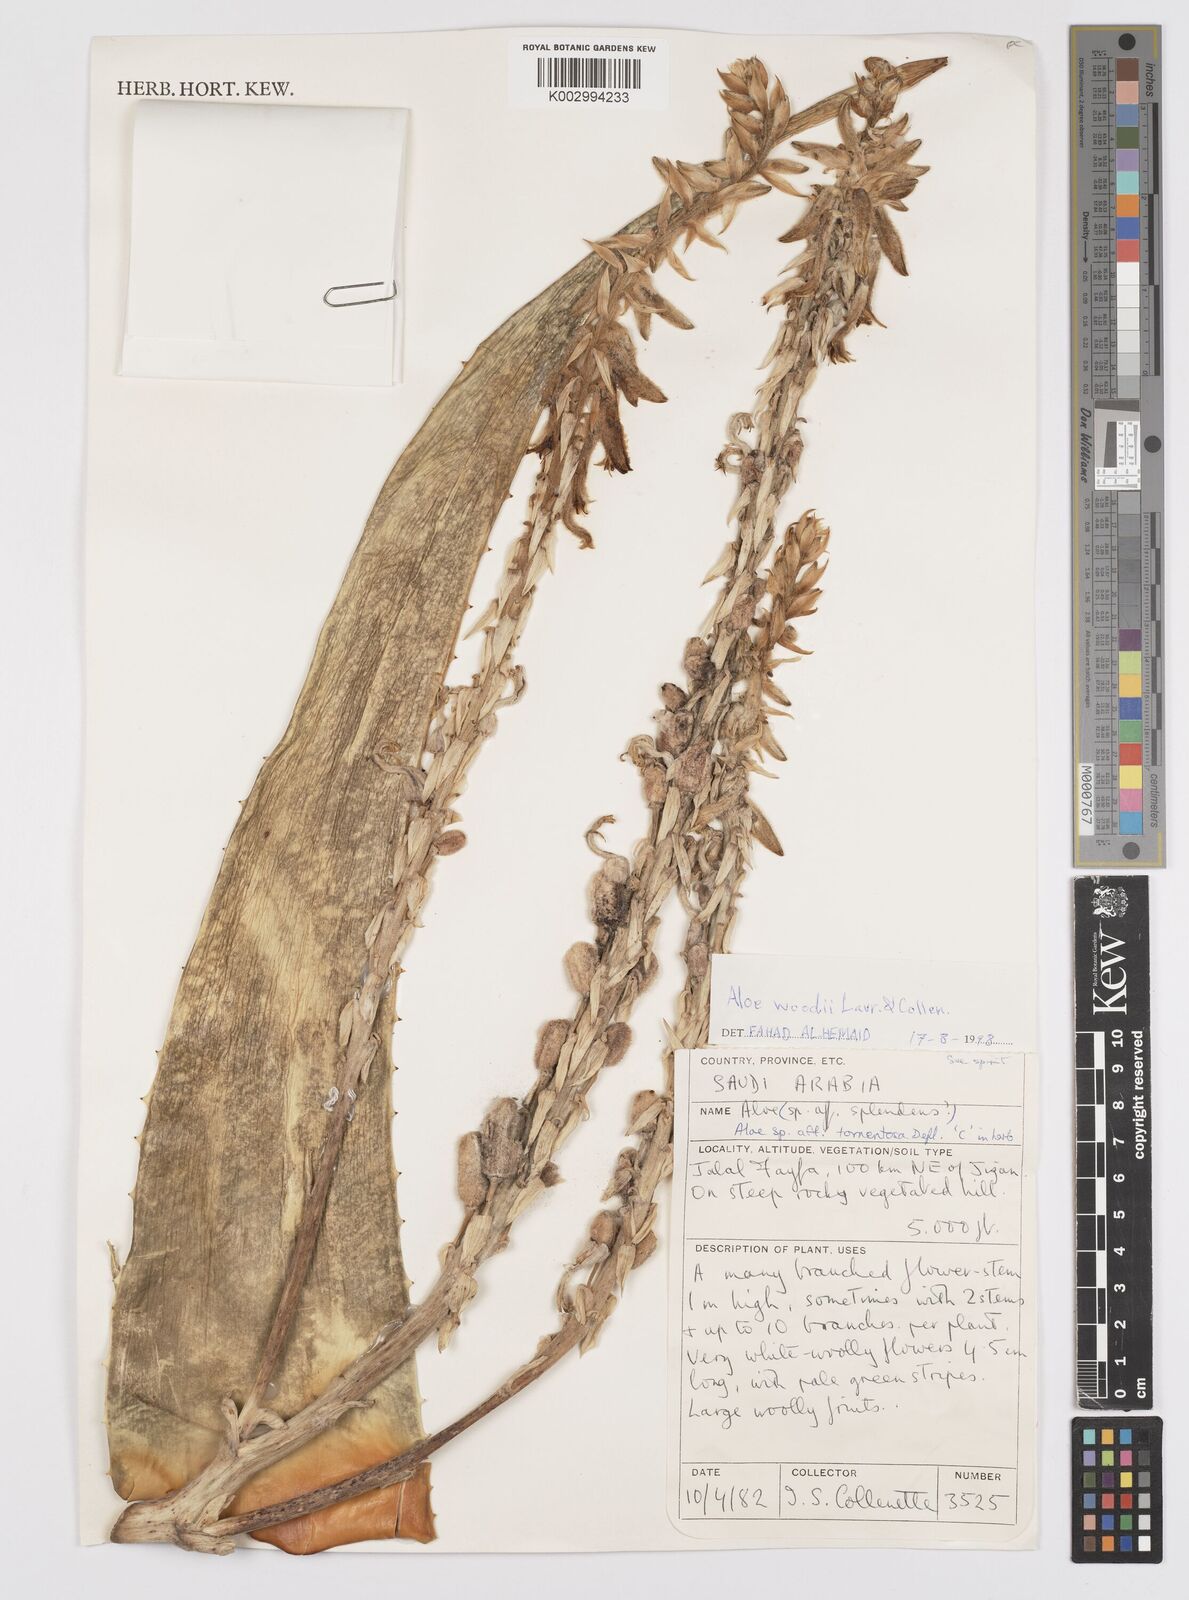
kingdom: Plantae
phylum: Tracheophyta
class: Liliopsida
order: Asparagales
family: Asphodelaceae
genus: Aloe
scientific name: Aloe woodii
